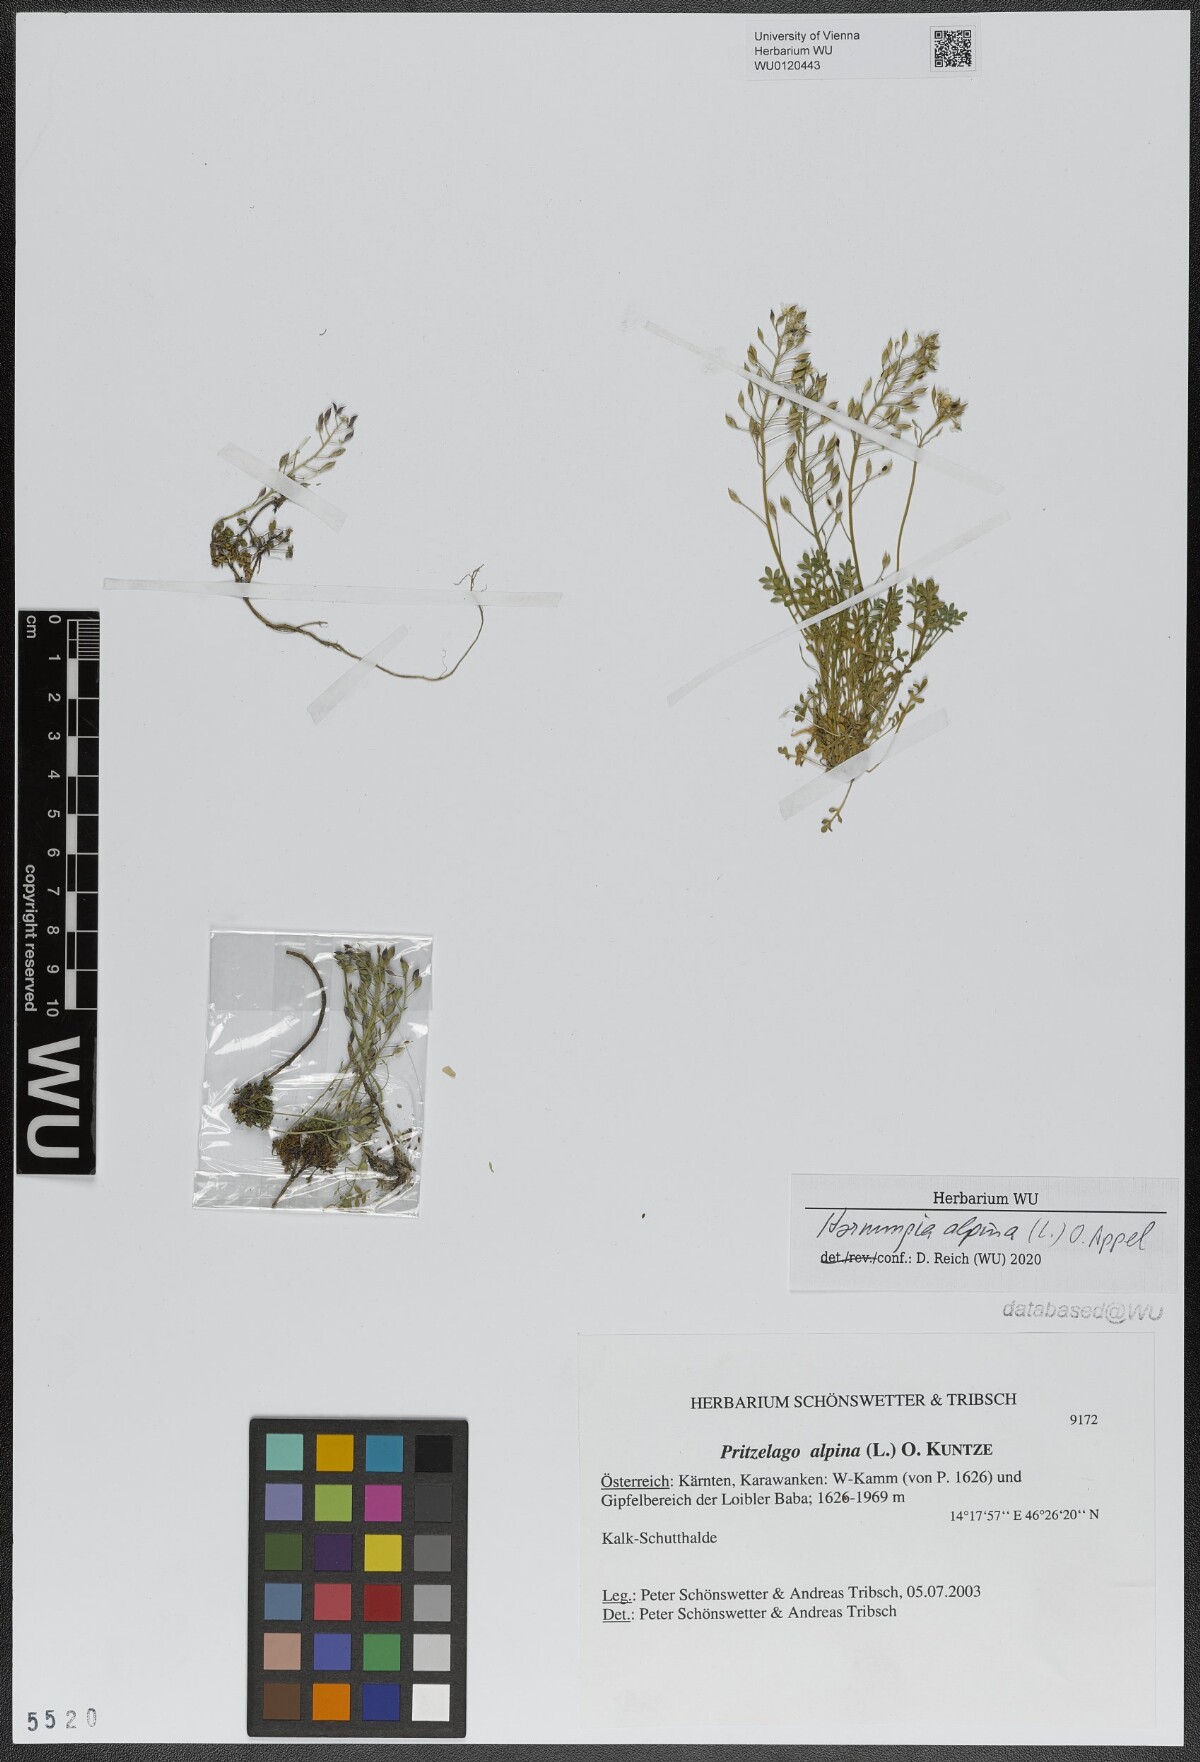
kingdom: Plantae
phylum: Tracheophyta
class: Magnoliopsida
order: Brassicales
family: Brassicaceae
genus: Hornungia
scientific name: Hornungia alpina
